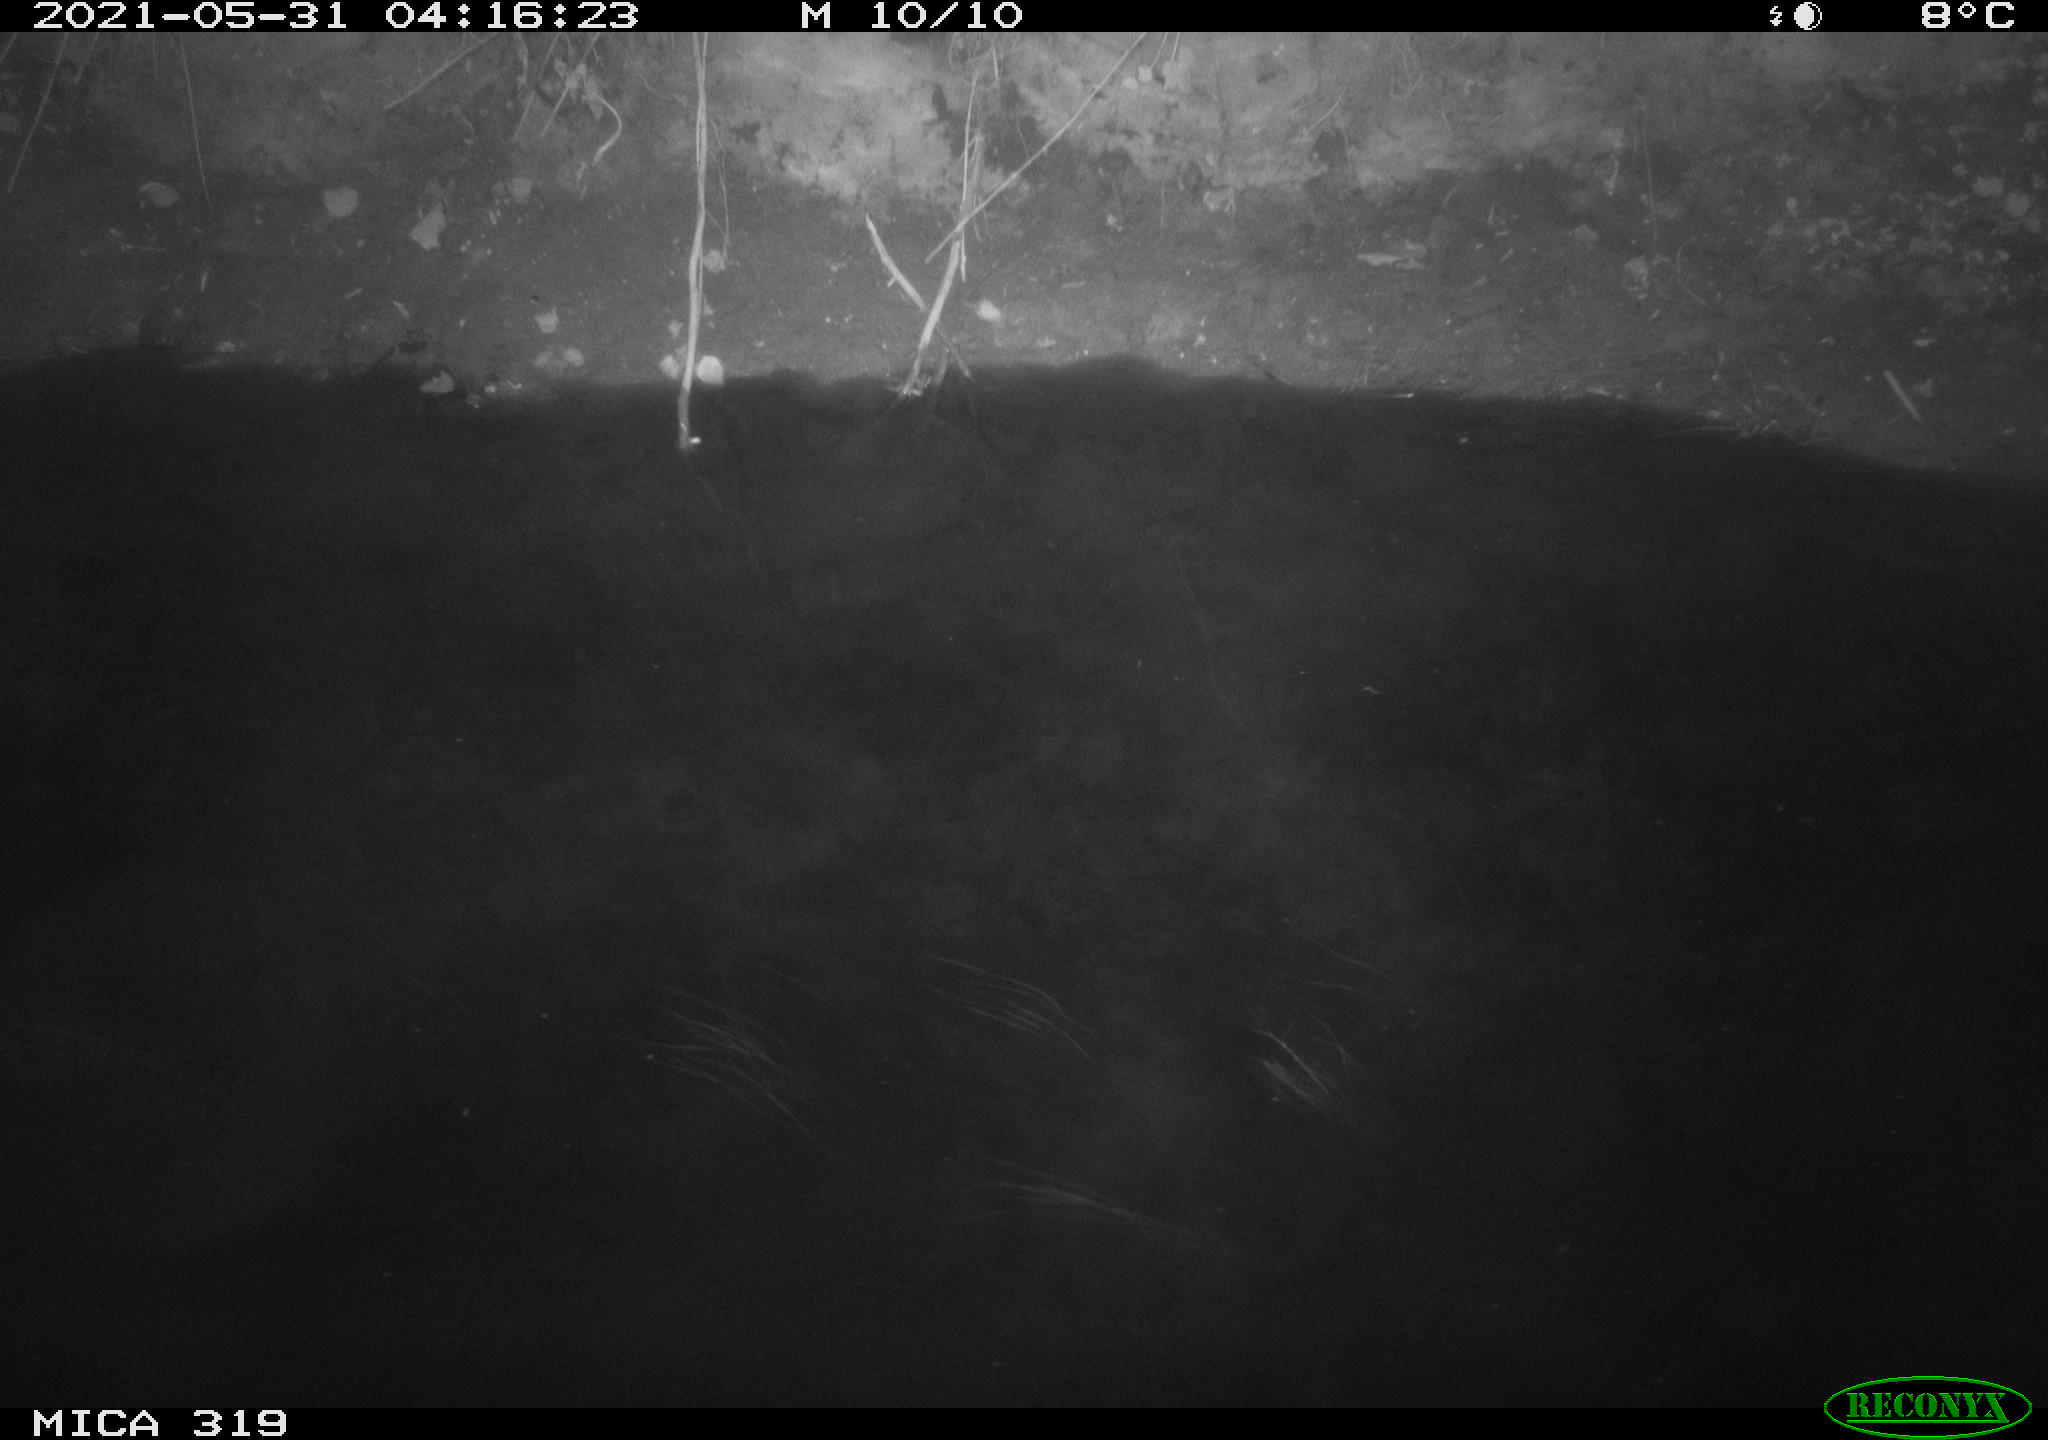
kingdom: Animalia
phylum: Chordata
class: Aves
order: Anseriformes
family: Anatidae
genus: Anas
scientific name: Anas platyrhynchos
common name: Mallard
